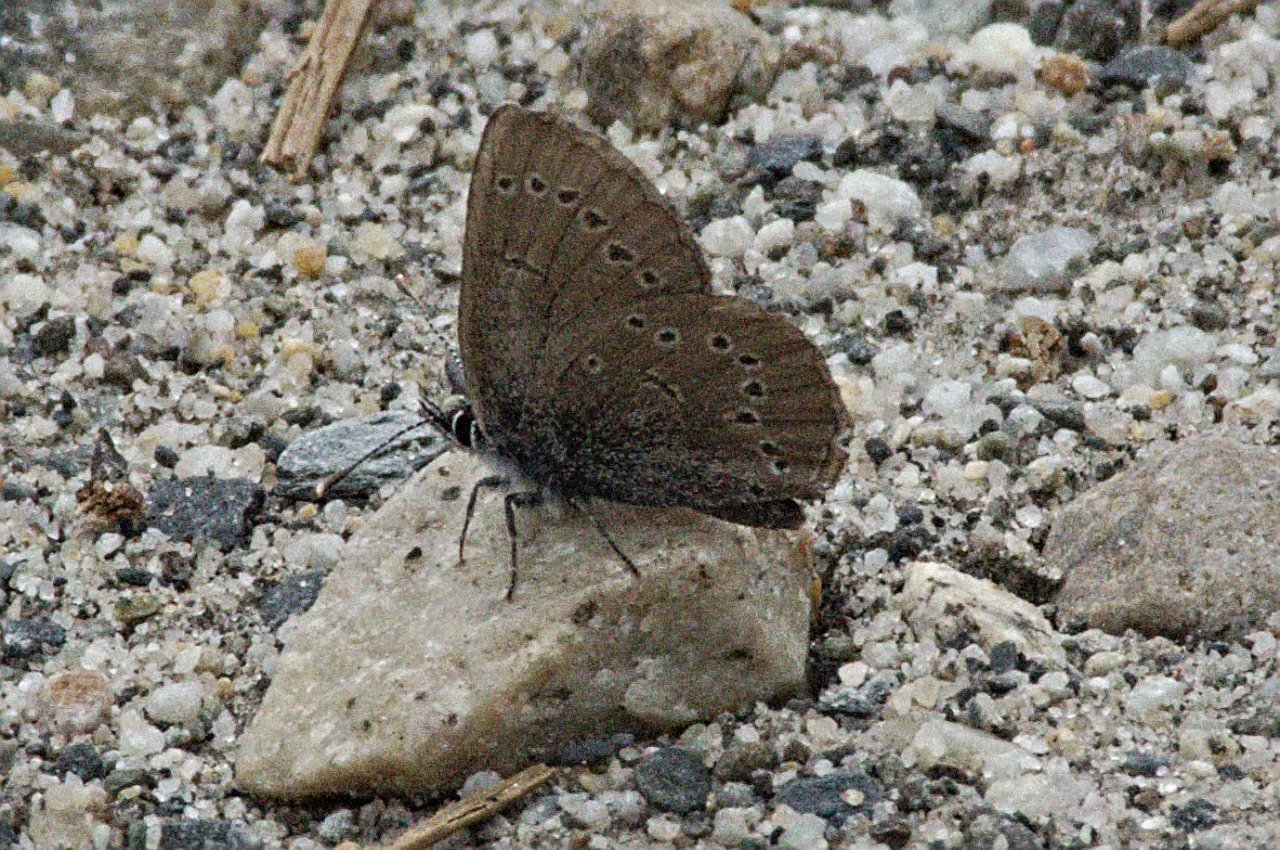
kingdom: Animalia
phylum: Arthropoda
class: Insecta
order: Lepidoptera
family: Lycaenidae
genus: Glaucopsyche
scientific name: Glaucopsyche lygdamus
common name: Silvery Blue
